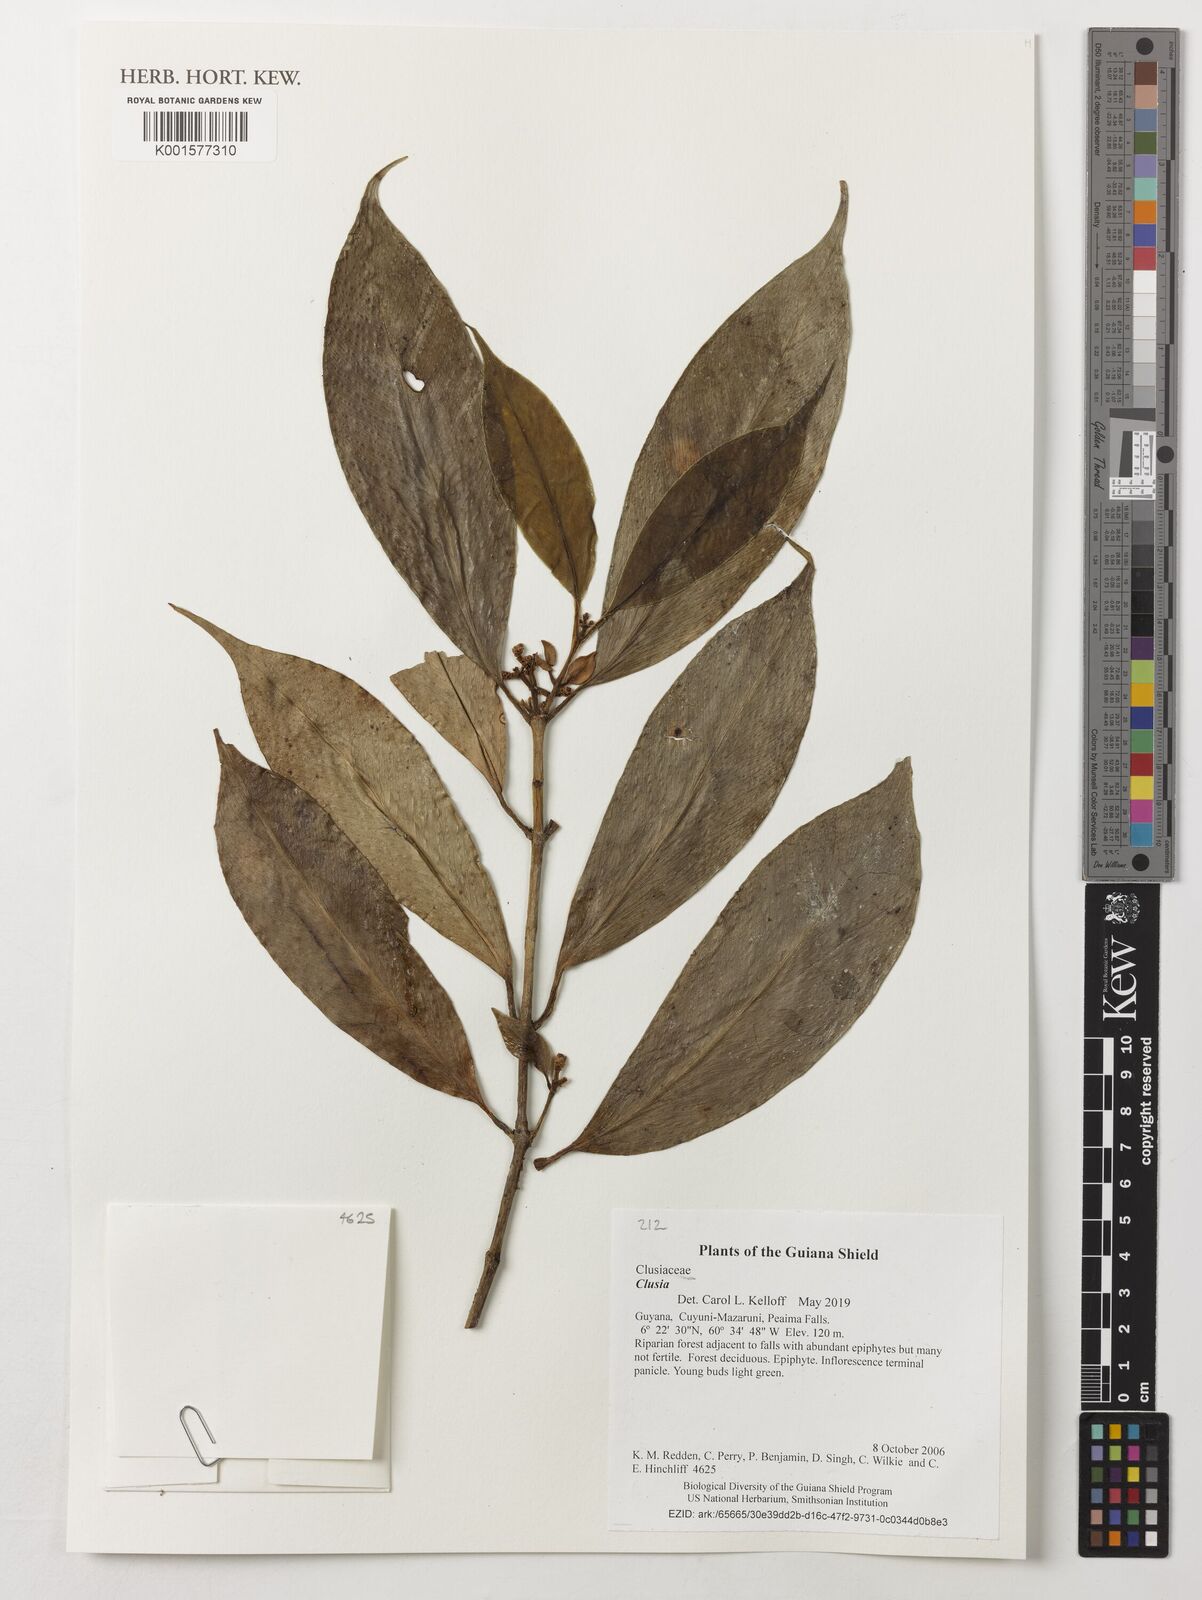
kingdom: Plantae
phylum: Tracheophyta
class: Magnoliopsida
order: Malpighiales
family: Clusiaceae
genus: Clusia
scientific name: Clusia
